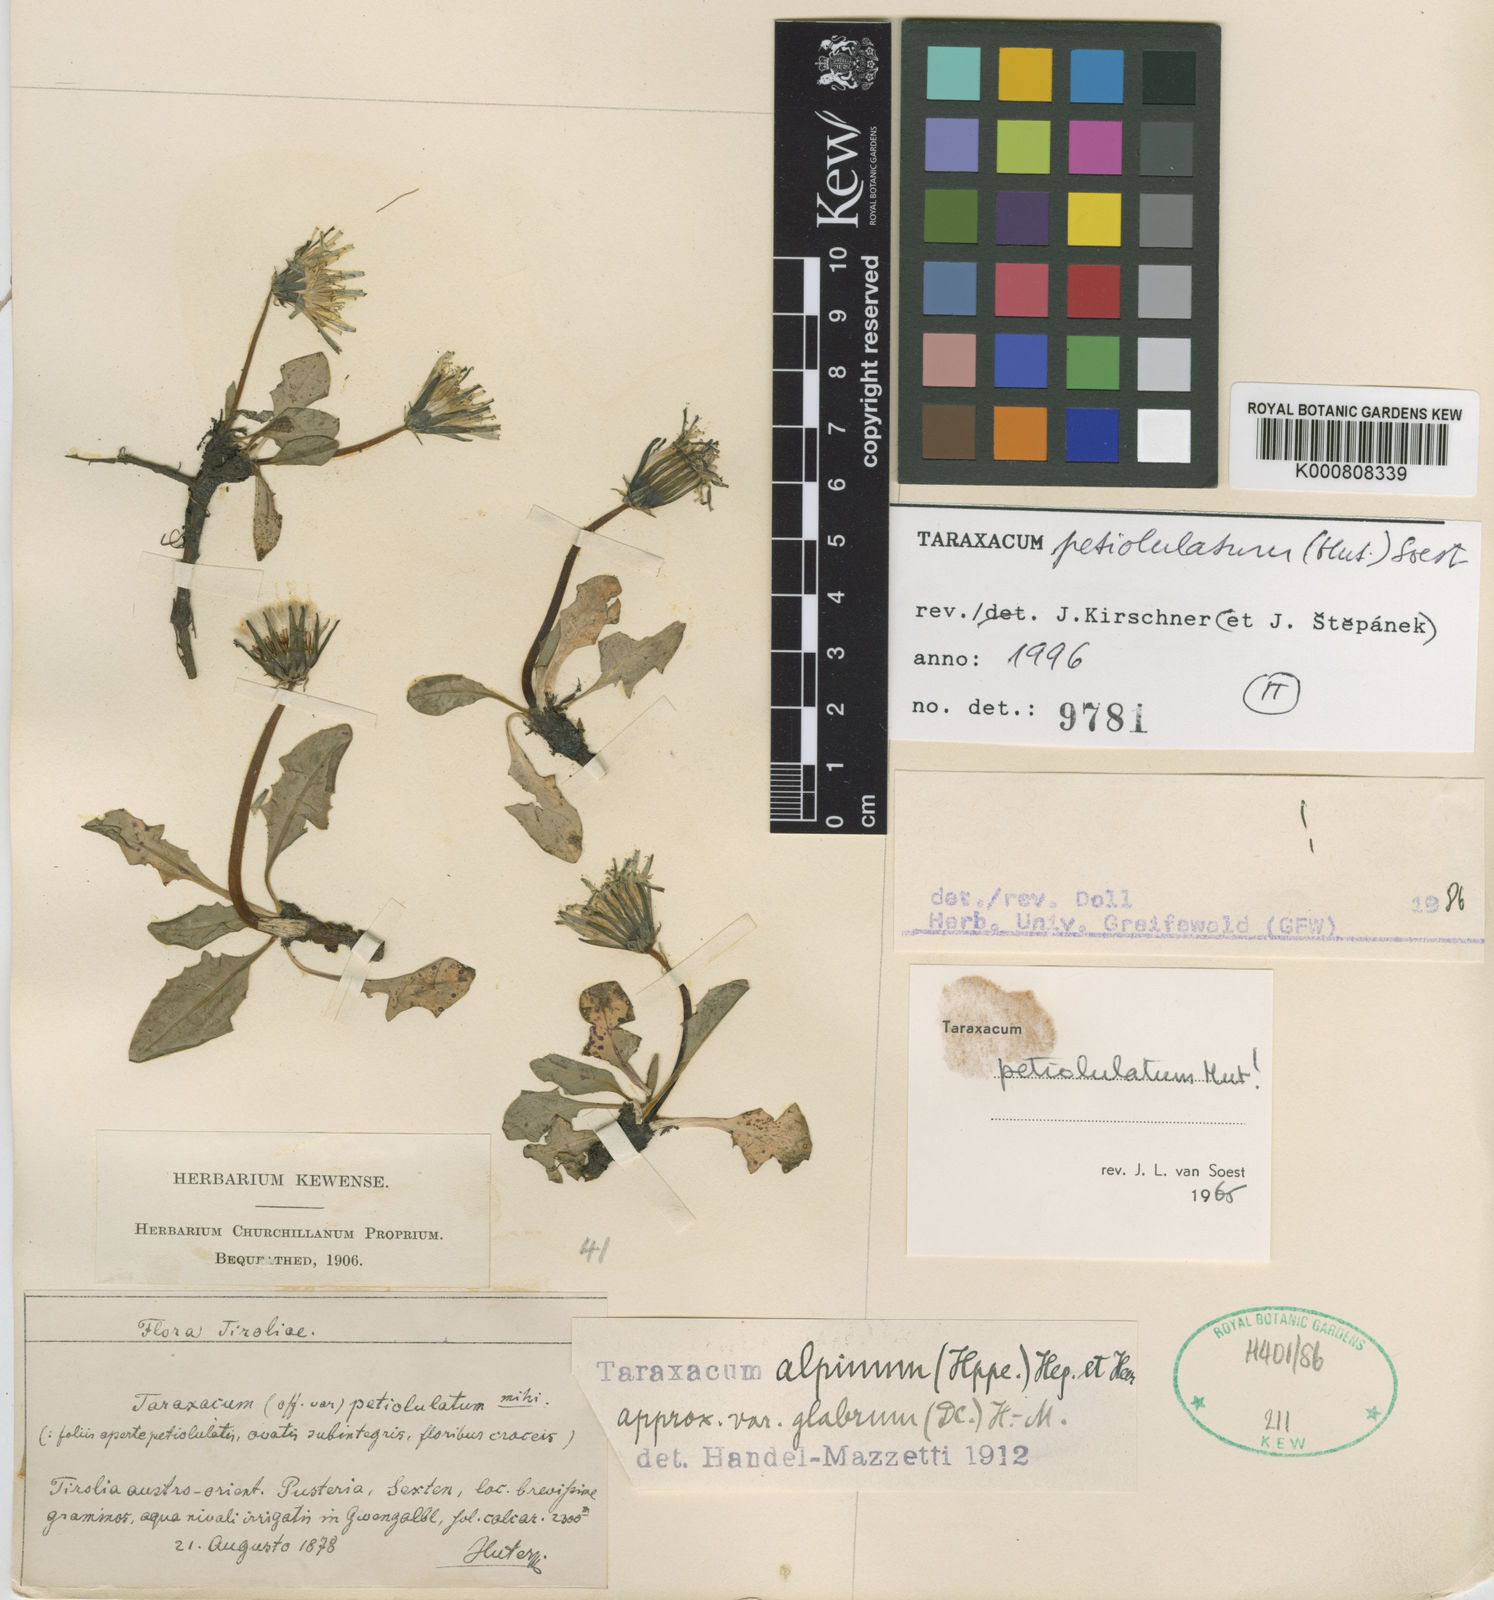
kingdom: Plantae
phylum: Tracheophyta
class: Magnoliopsida
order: Asterales
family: Asteraceae
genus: Taraxacum
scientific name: Taraxacum petiolulatum
